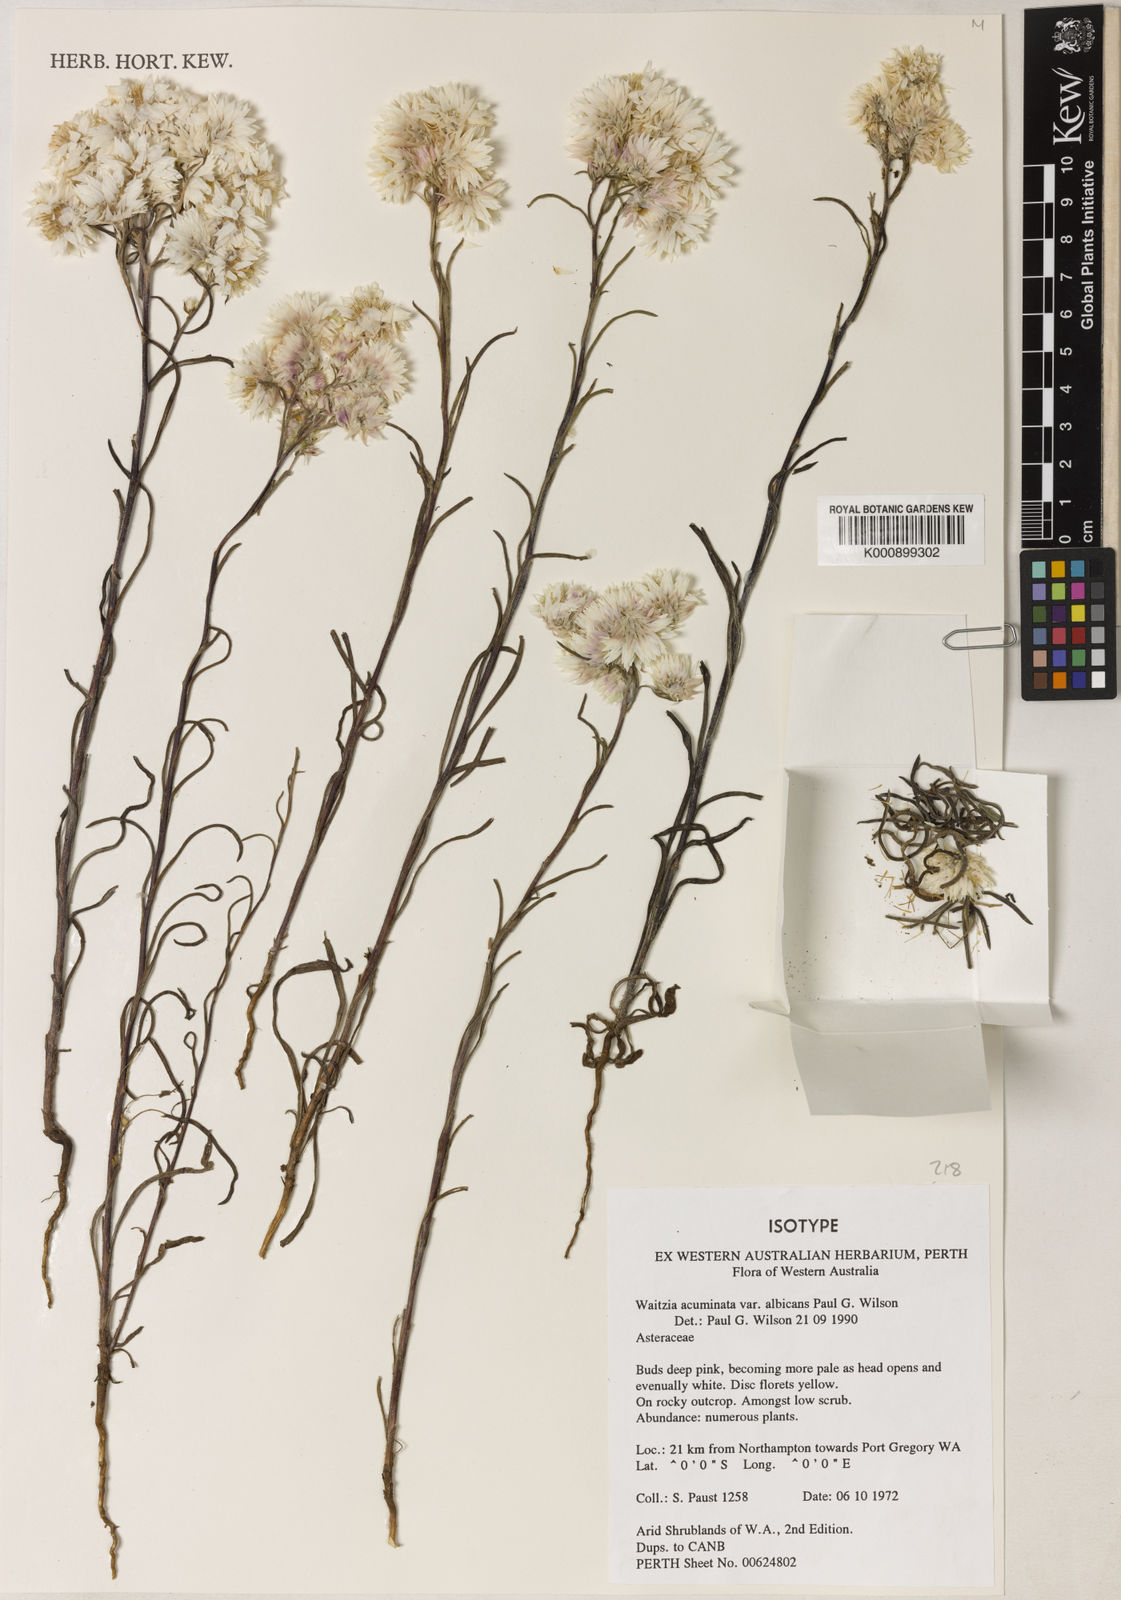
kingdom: Plantae
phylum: Tracheophyta
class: Magnoliopsida
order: Asterales
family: Asteraceae
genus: Waitzia
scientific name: Waitzia acuminata
